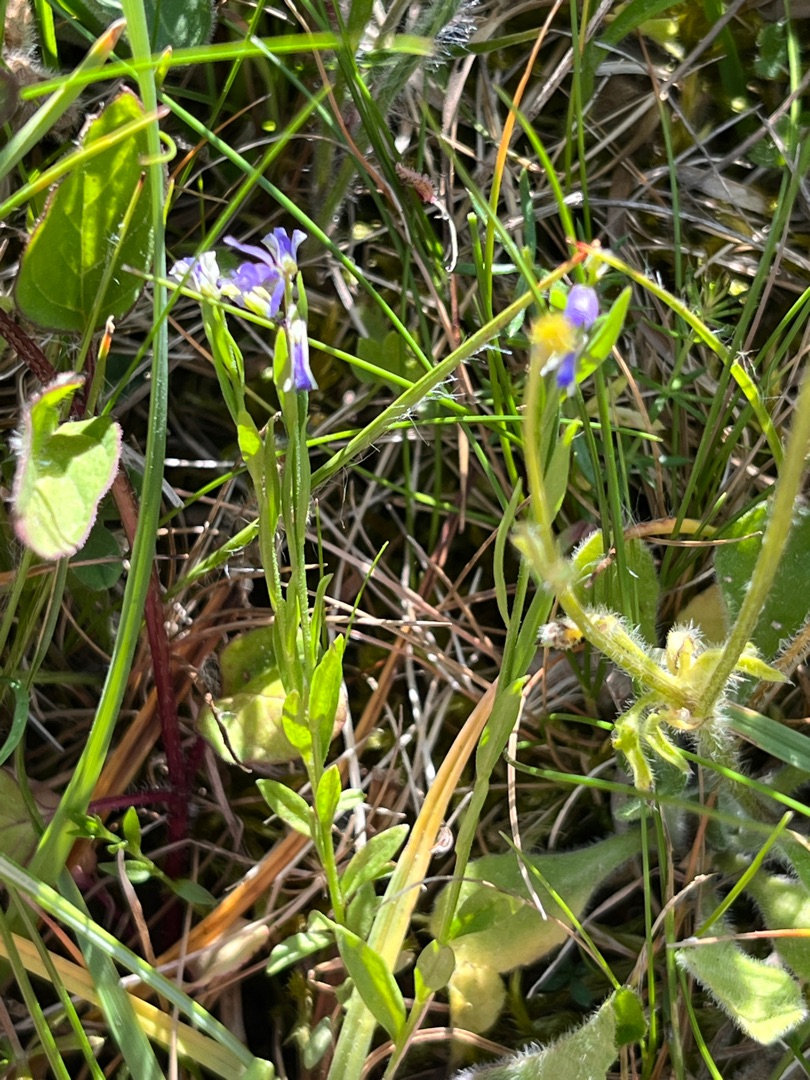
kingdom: Plantae
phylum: Tracheophyta
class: Magnoliopsida
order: Fabales
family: Polygalaceae
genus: Polygala
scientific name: Polygala vulgaris
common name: Almindelig mælkeurt
